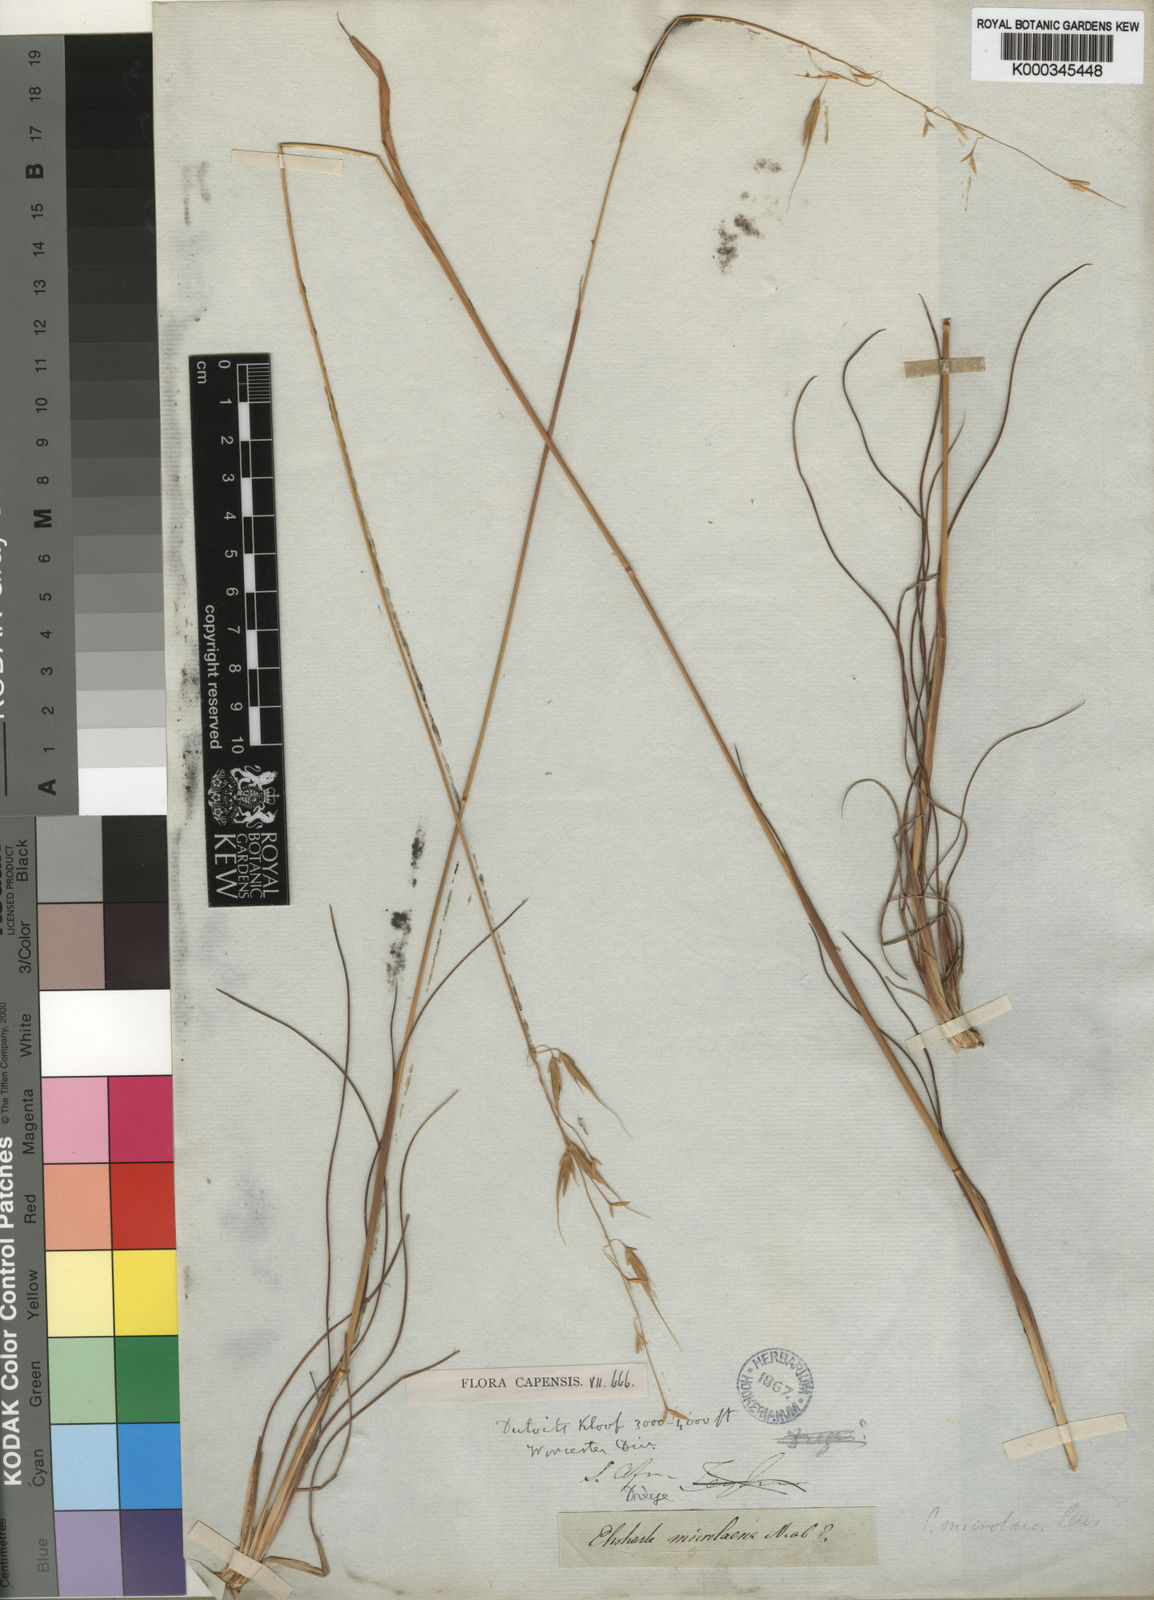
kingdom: Plantae
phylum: Tracheophyta
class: Liliopsida
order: Poales
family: Poaceae
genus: Ehrharta
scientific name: Ehrharta
